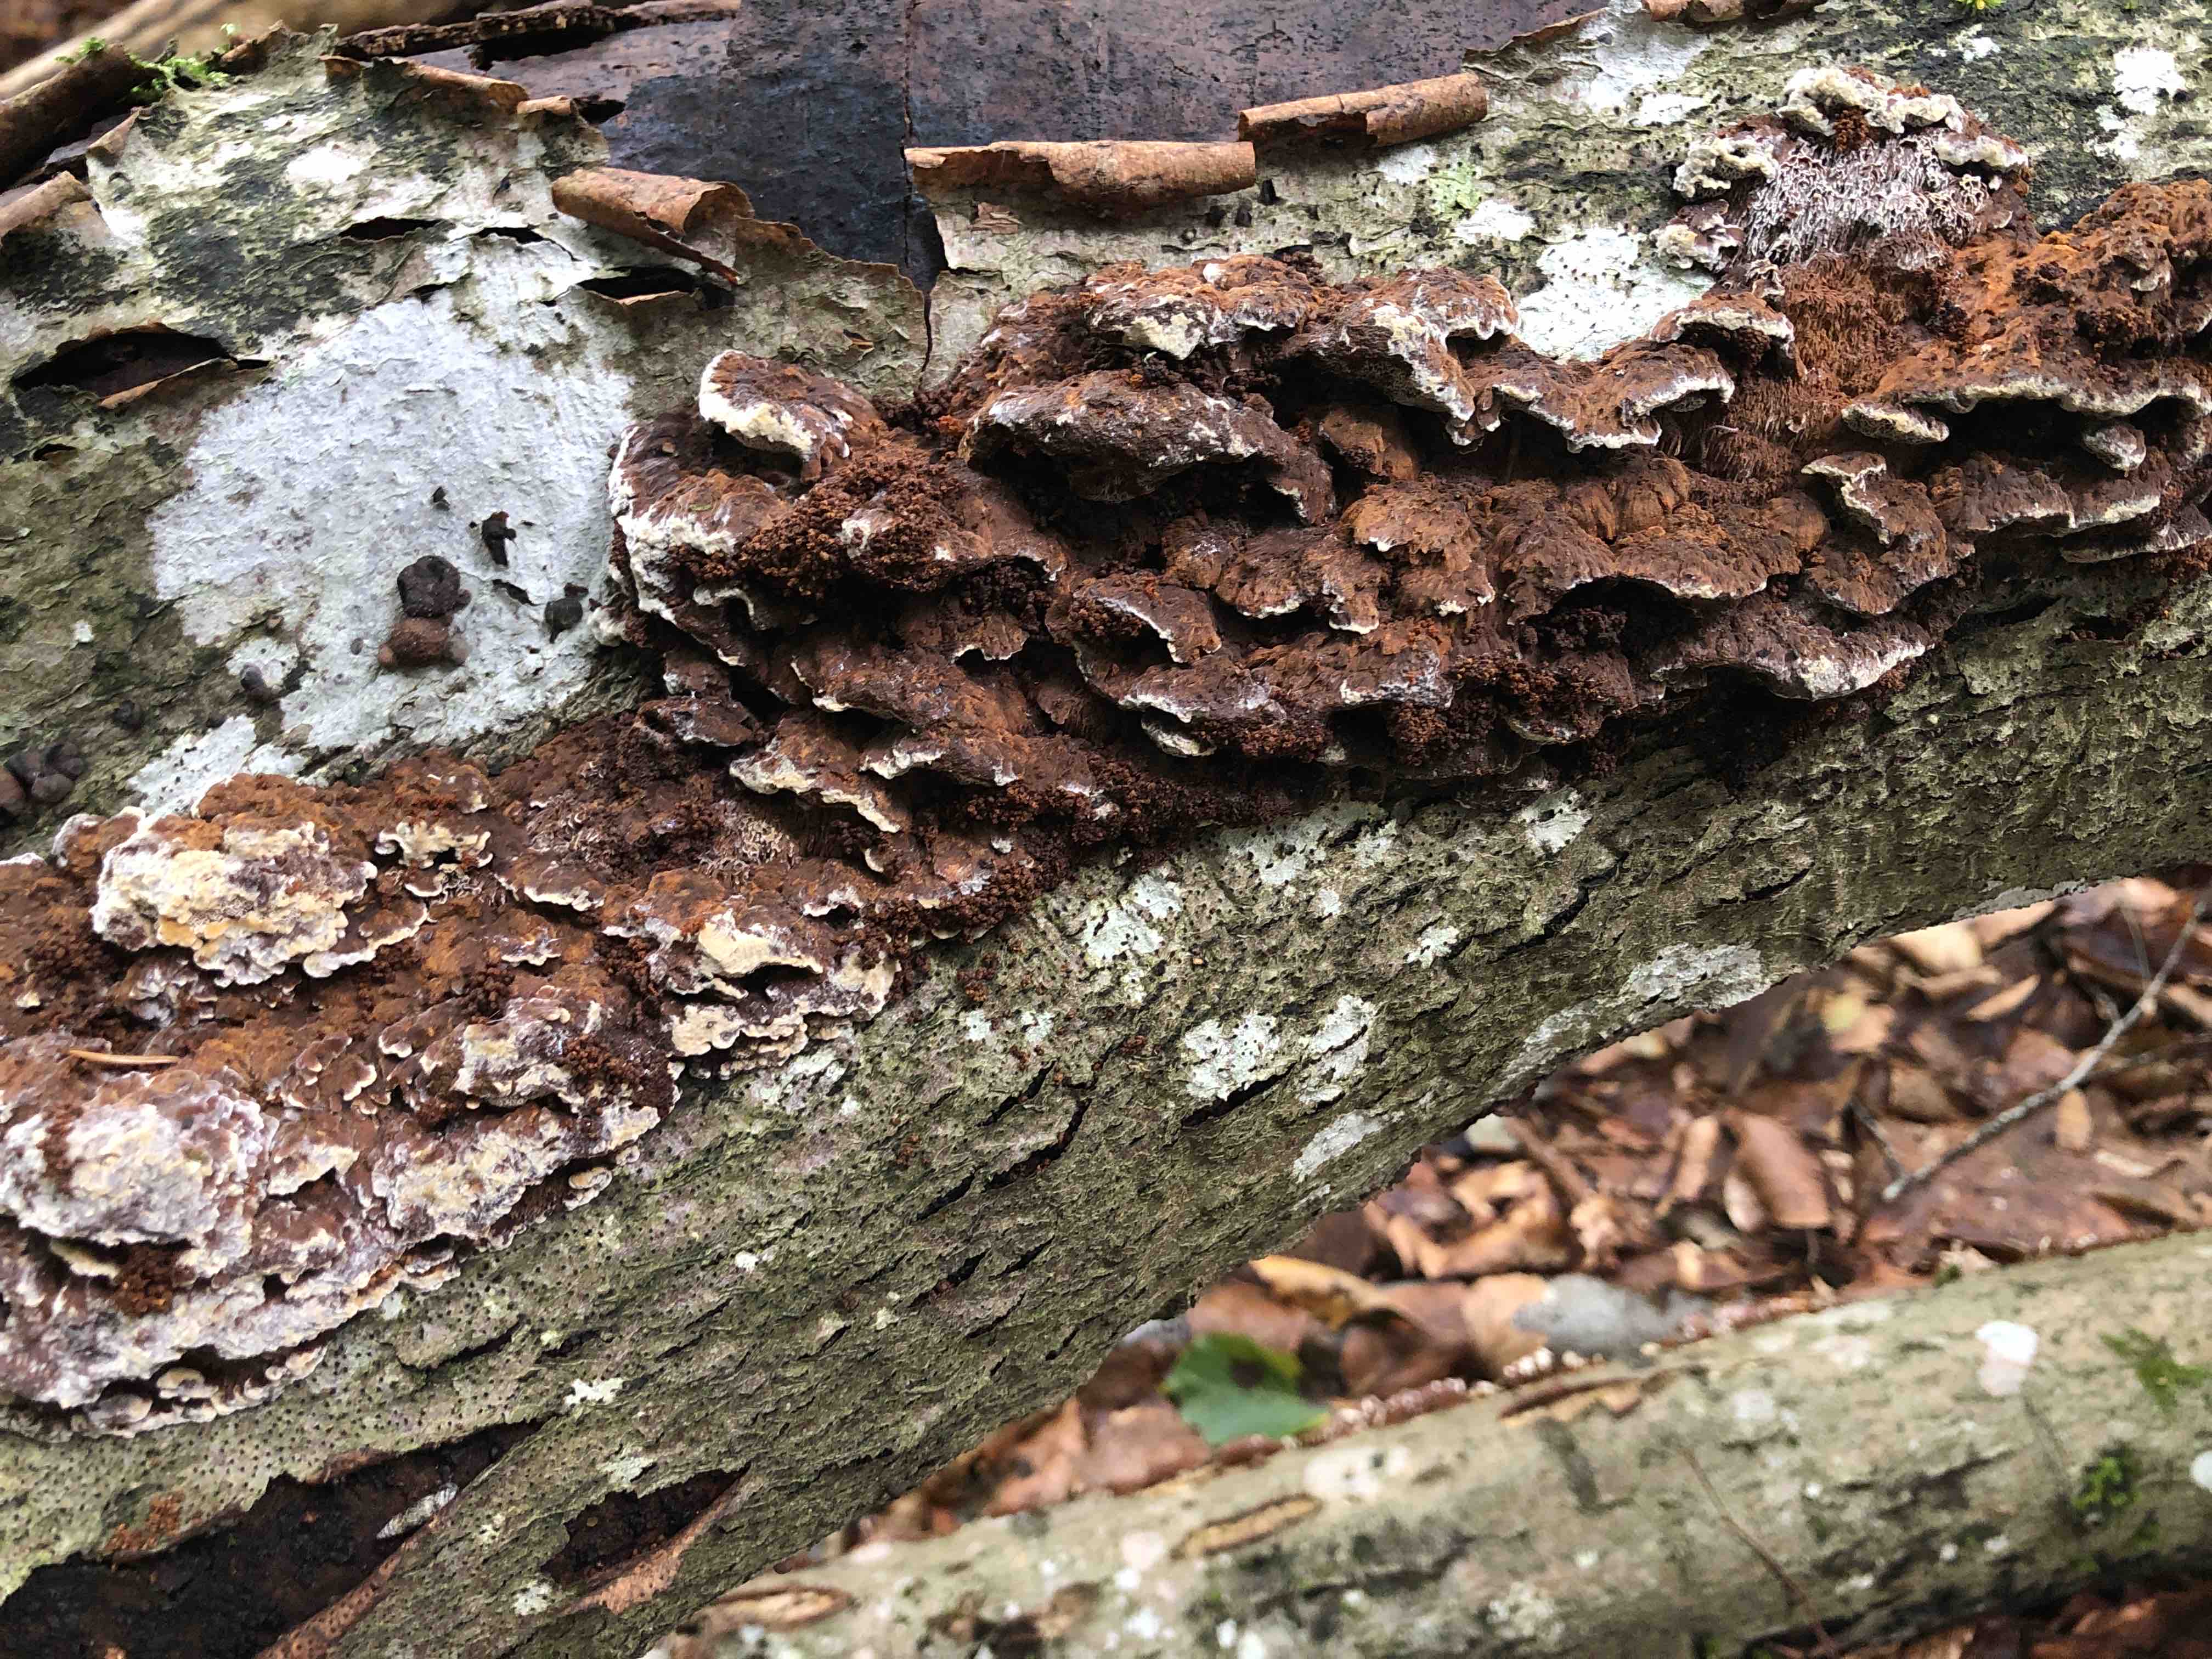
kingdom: Fungi
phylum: Basidiomycota
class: Agaricomycetes
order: Hymenochaetales
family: Hymenochaetaceae
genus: Mensularia
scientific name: Mensularia nodulosa
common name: bøge-spejlporesvamp
